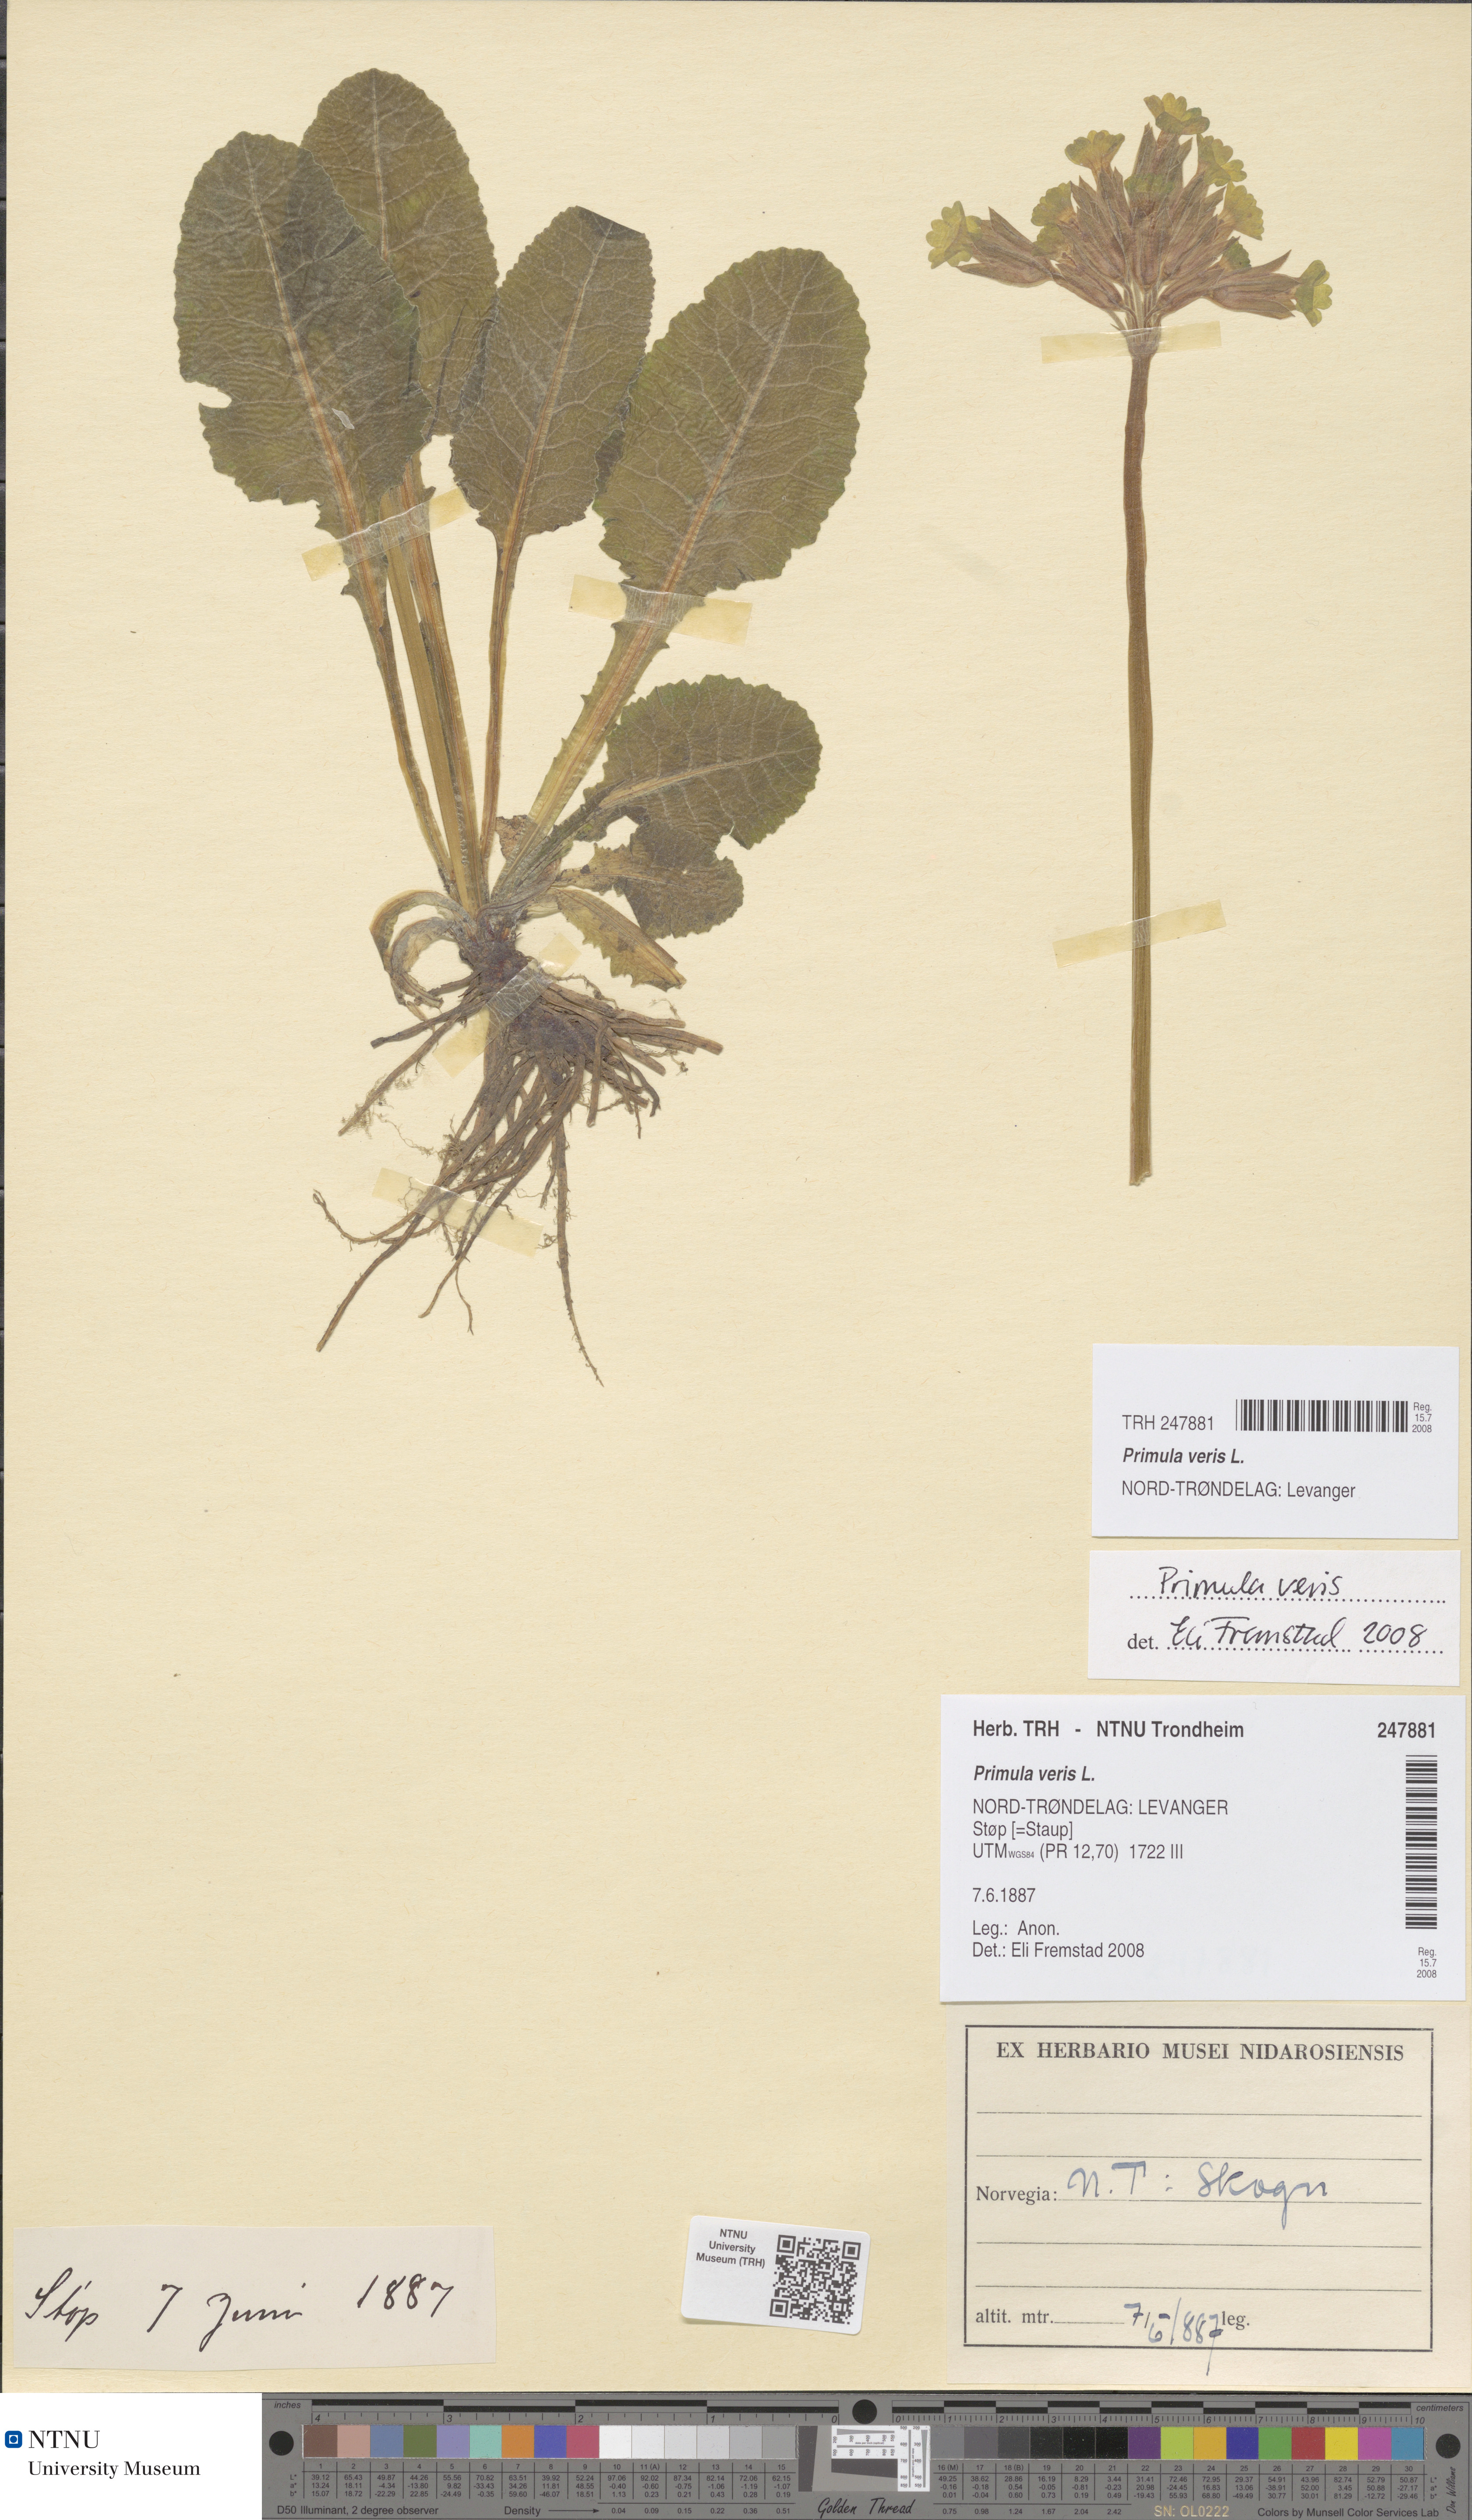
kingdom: Plantae
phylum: Tracheophyta
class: Magnoliopsida
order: Ericales
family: Primulaceae
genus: Primula
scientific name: Primula veris
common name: Cowslip
